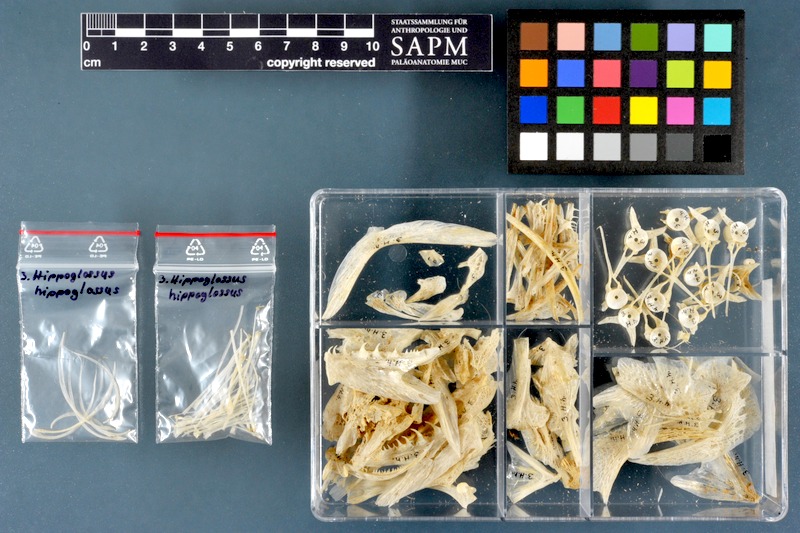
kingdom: Animalia
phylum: Chordata
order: Pleuronectiformes
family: Pleuronectidae
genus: Hippoglossus
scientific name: Hippoglossus hippoglossus
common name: Atlantic halibut
